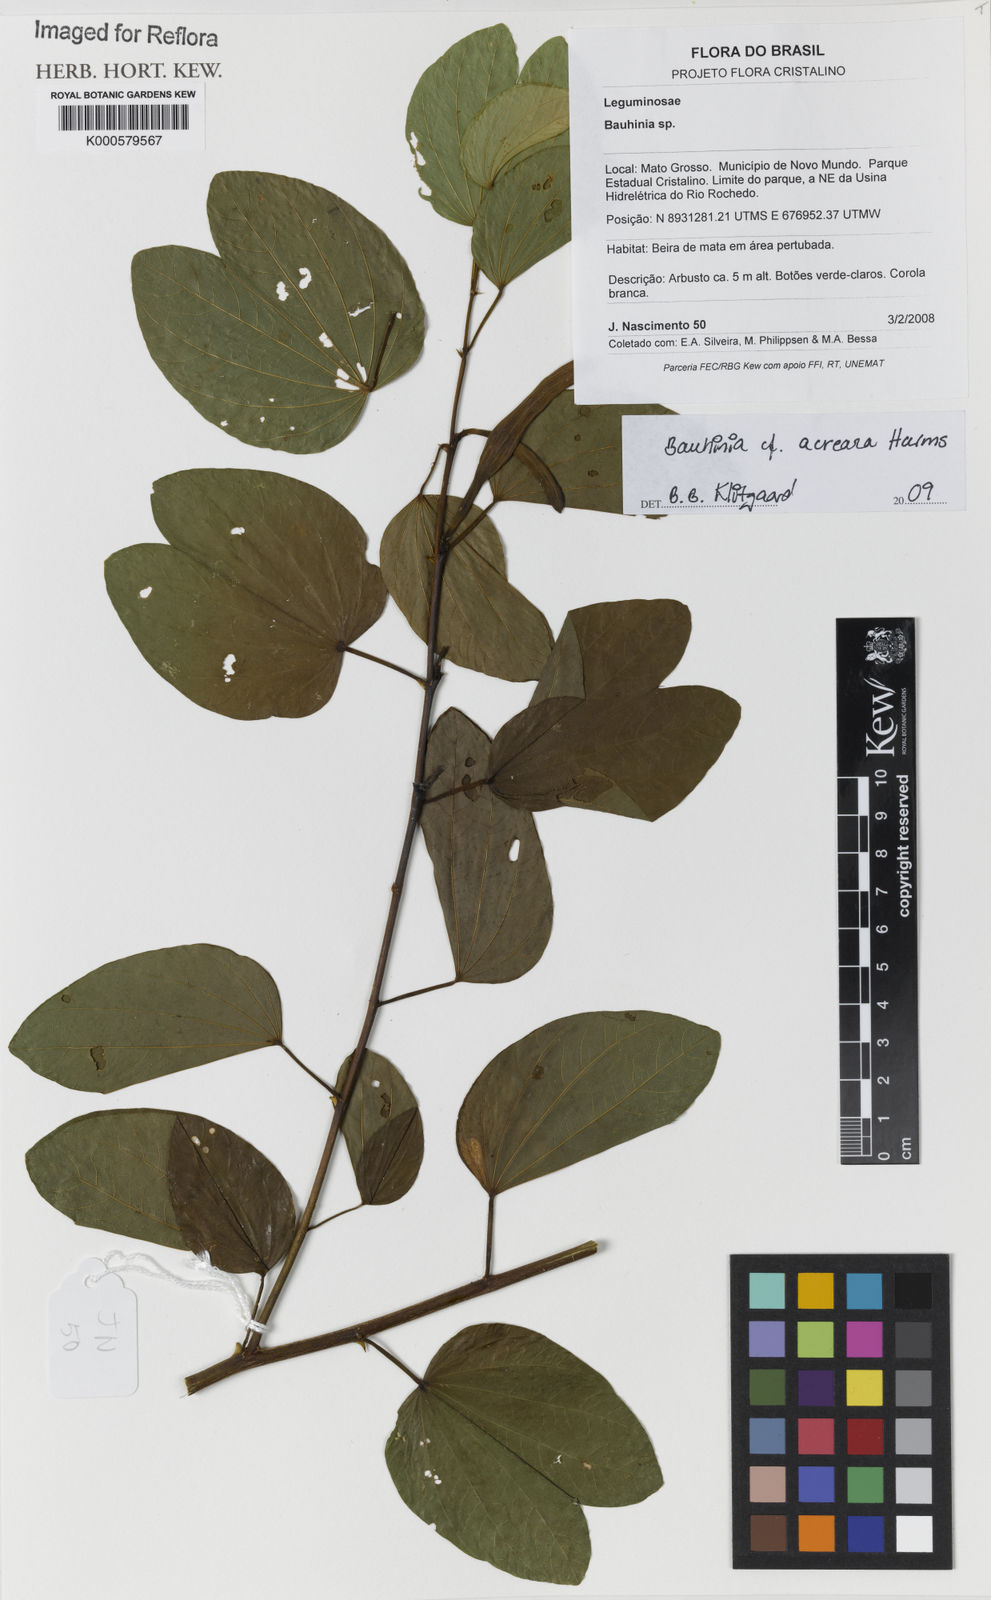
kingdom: Plantae
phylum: Tracheophyta
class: Magnoliopsida
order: Fabales
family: Fabaceae
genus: Bauhinia
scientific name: Bauhinia acreana
